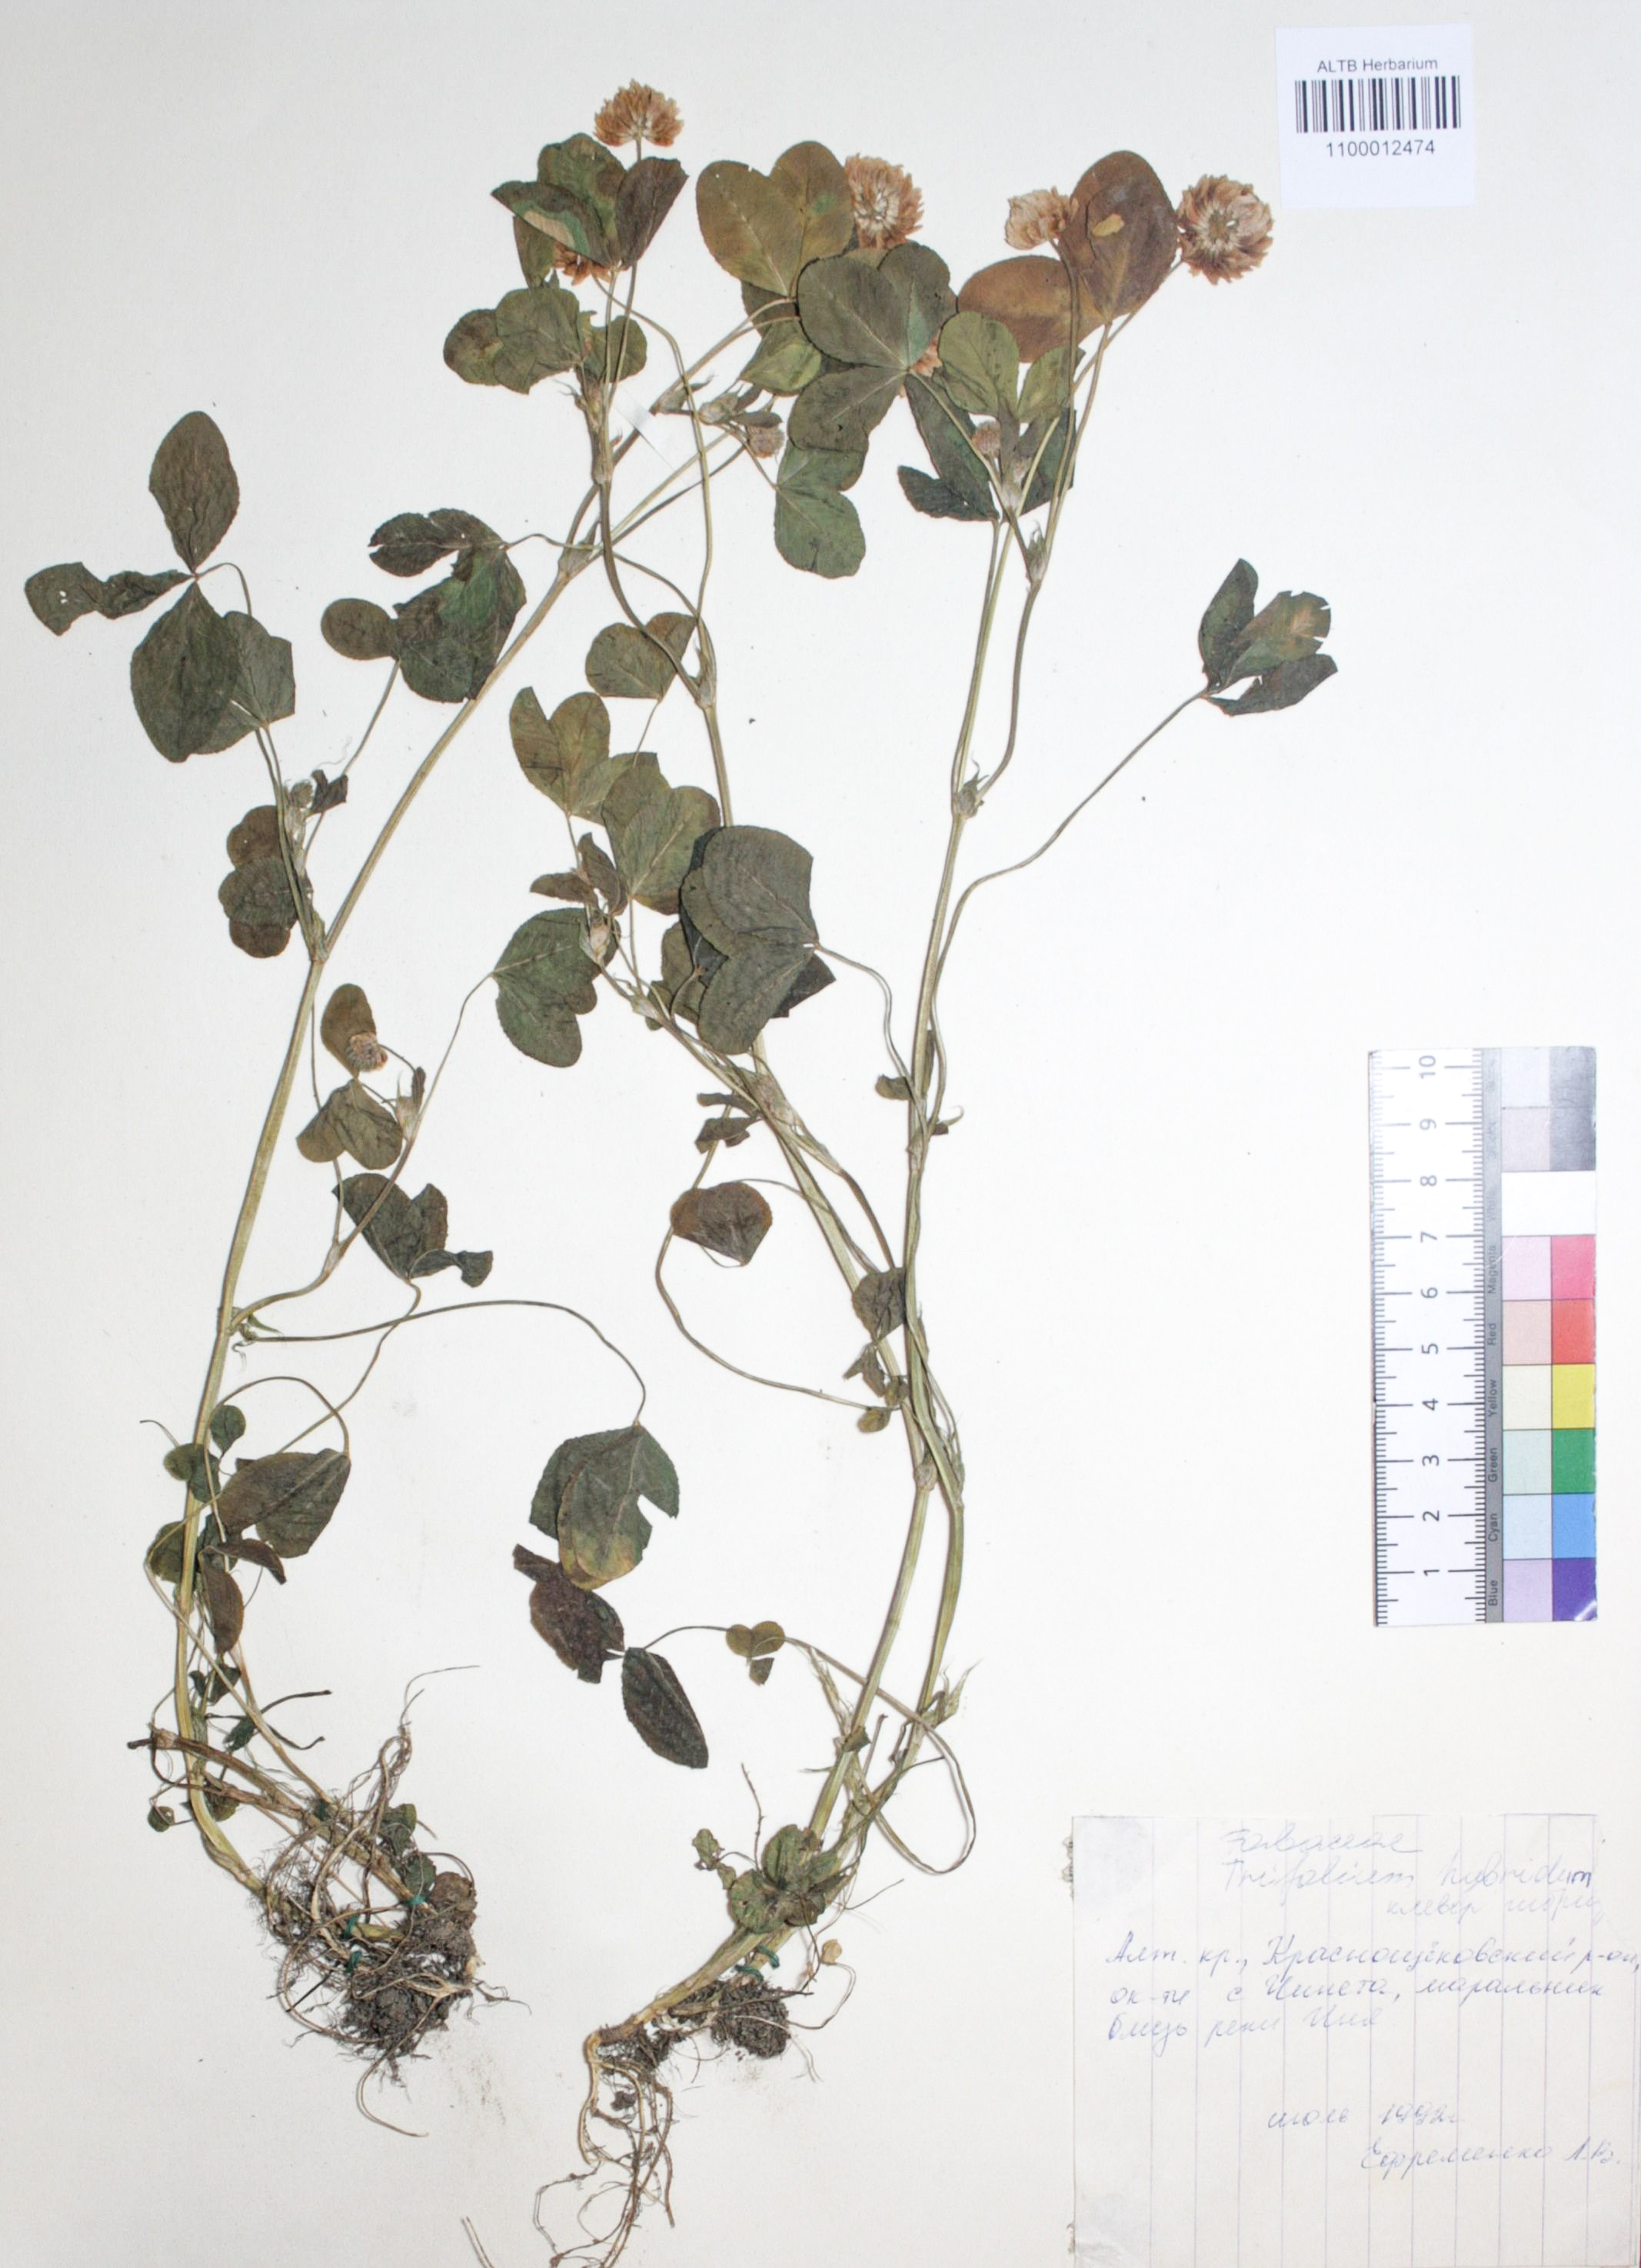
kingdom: Plantae
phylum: Tracheophyta
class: Magnoliopsida
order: Fabales
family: Fabaceae
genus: Trifolium
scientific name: Trifolium hybridum
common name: Alsike clover
